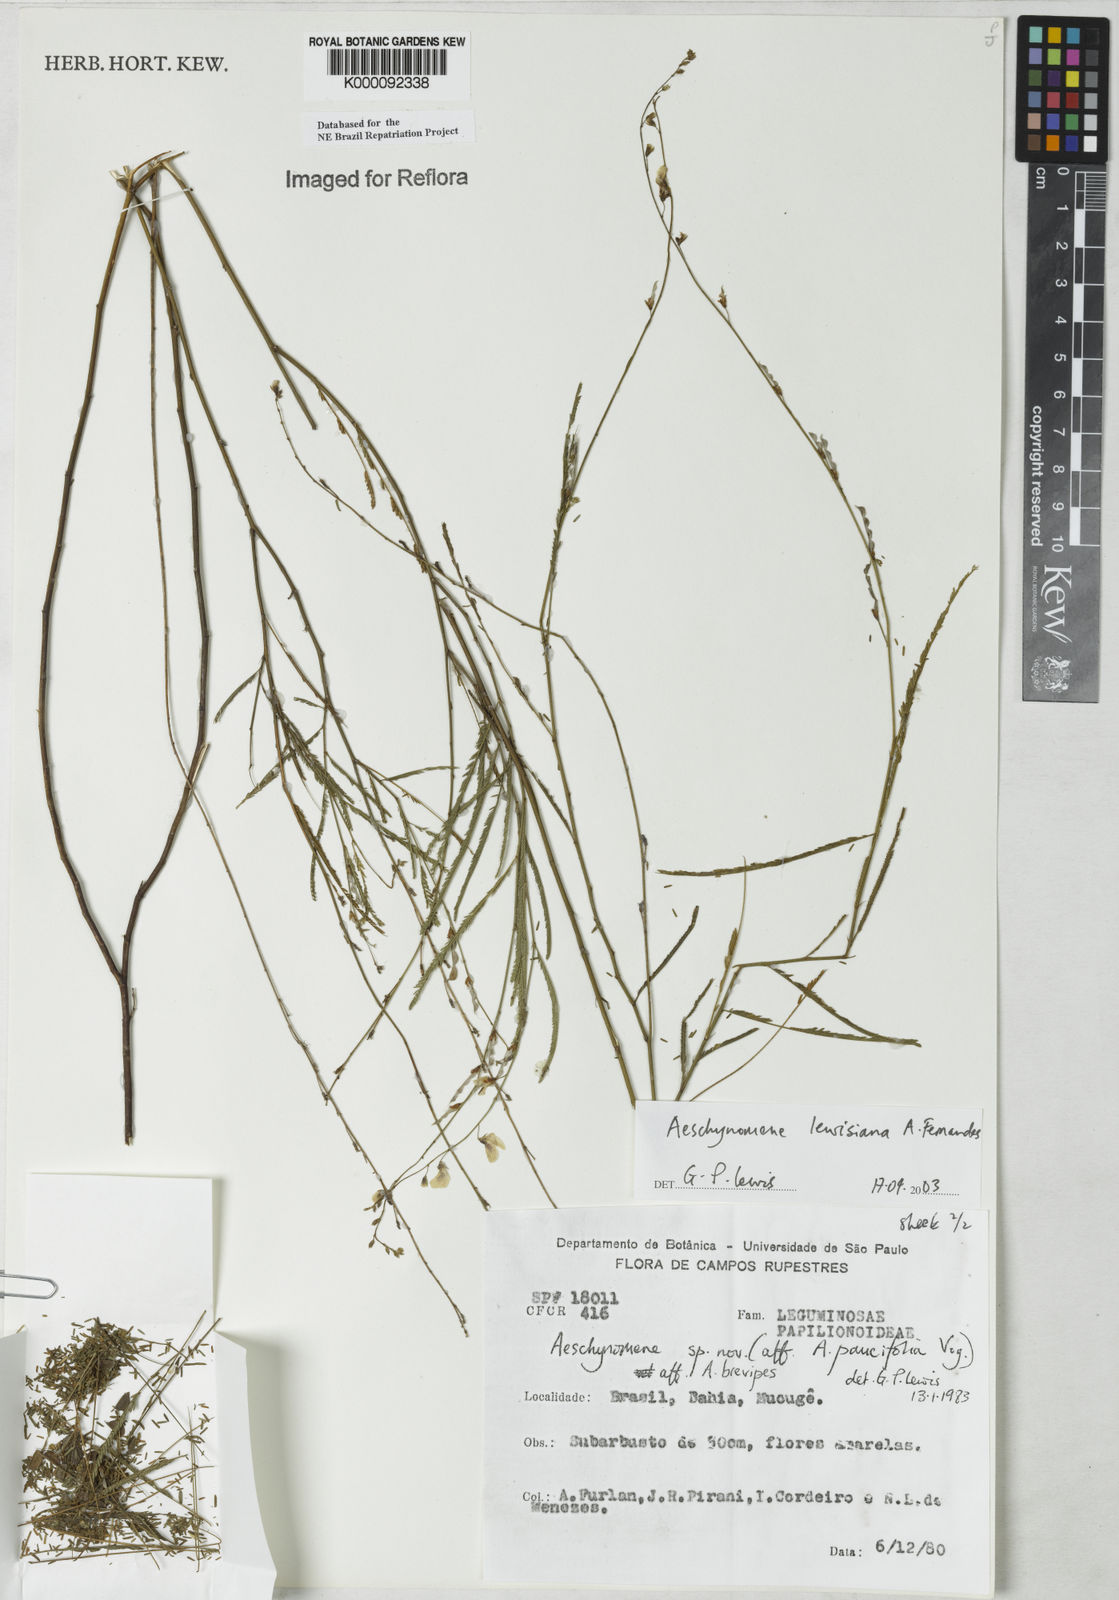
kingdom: Plantae
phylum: Tracheophyta
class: Magnoliopsida
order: Fabales
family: Fabaceae
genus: Ctenodon
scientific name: Ctenodon lewisianus
